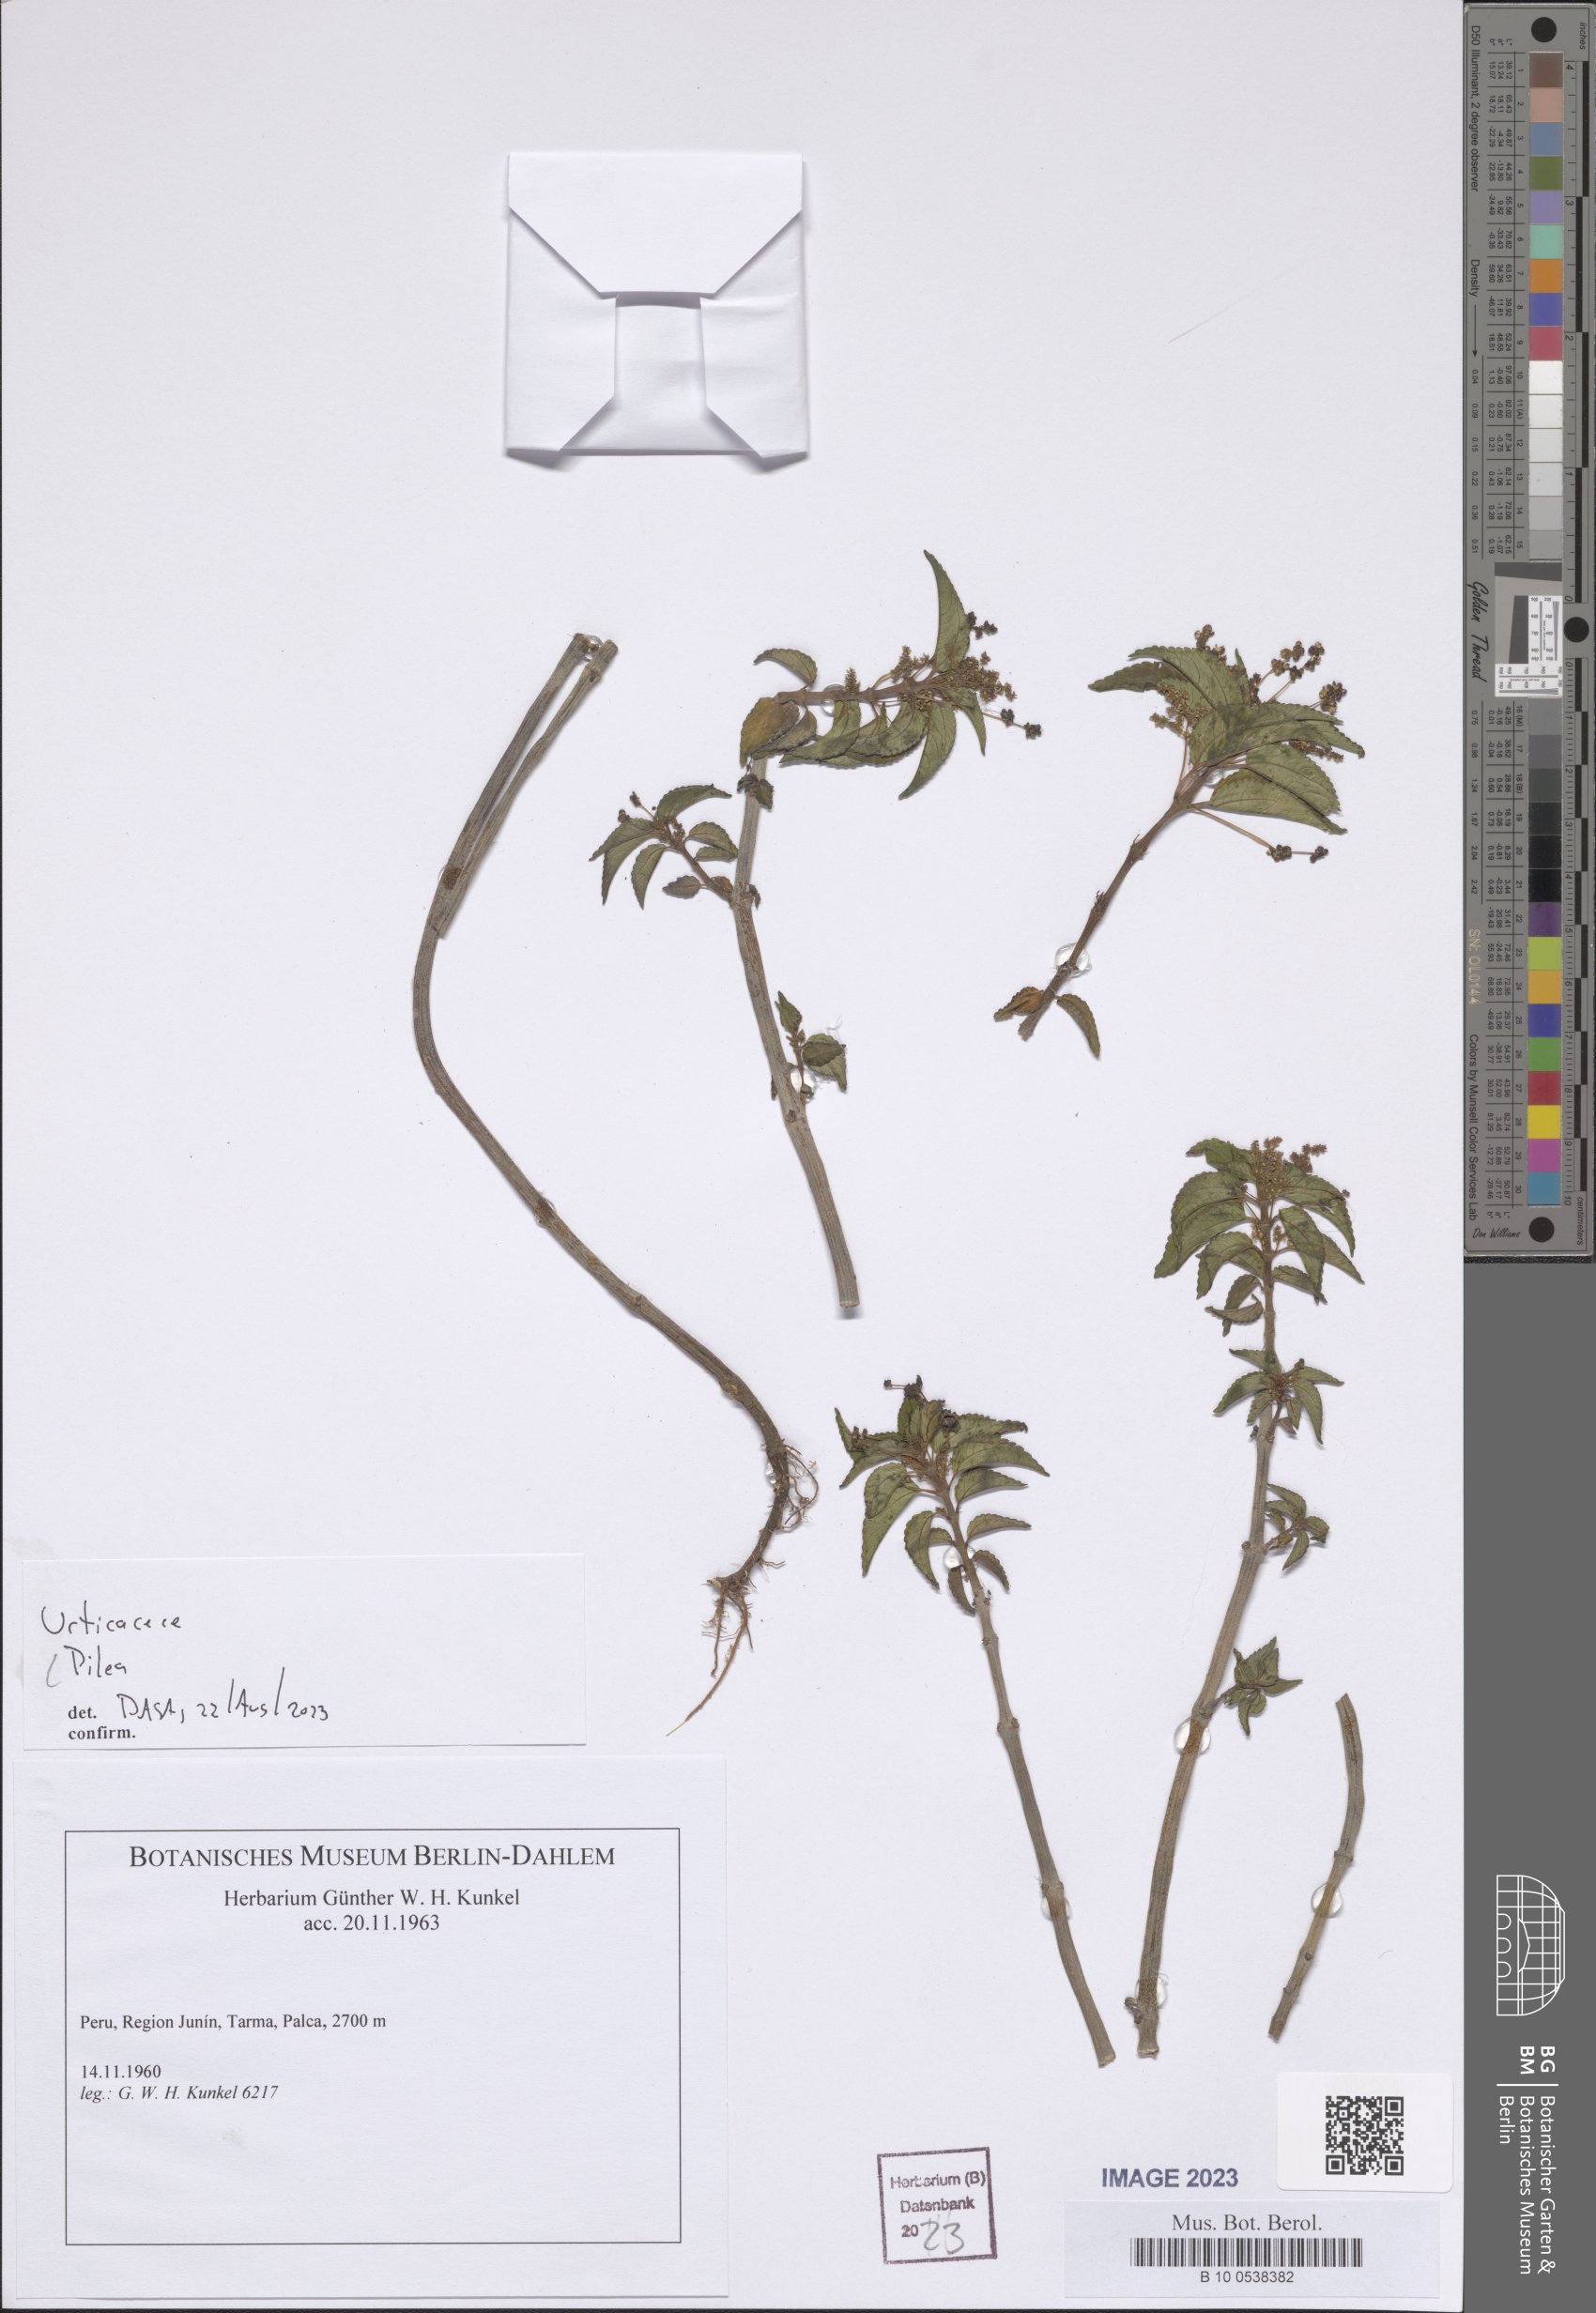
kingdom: Plantae
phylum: Tracheophyta
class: Magnoliopsida
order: Rosales
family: Urticaceae
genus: Pilea
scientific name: Pilea
